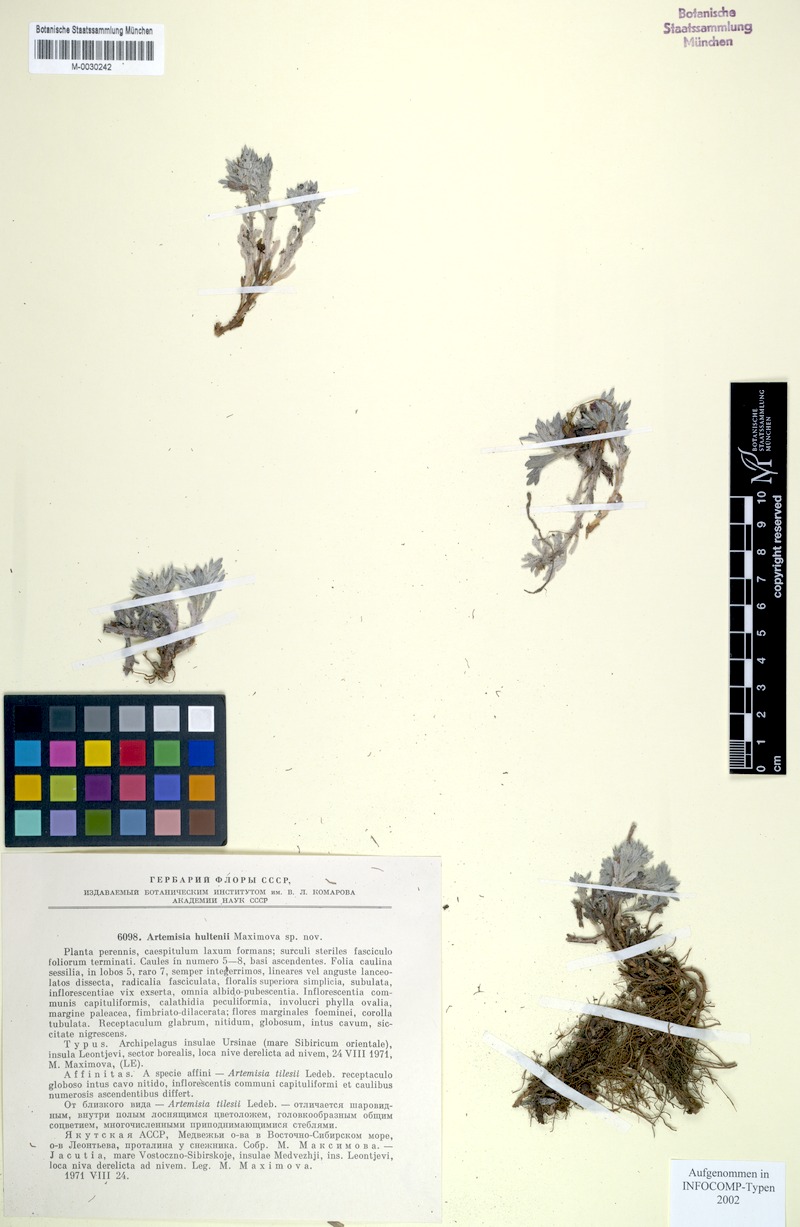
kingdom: Plantae
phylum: Tracheophyta
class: Magnoliopsida
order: Asterales
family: Asteraceae
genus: Artemisia
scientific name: Artemisia tilesii
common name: Aleutian mugwort
